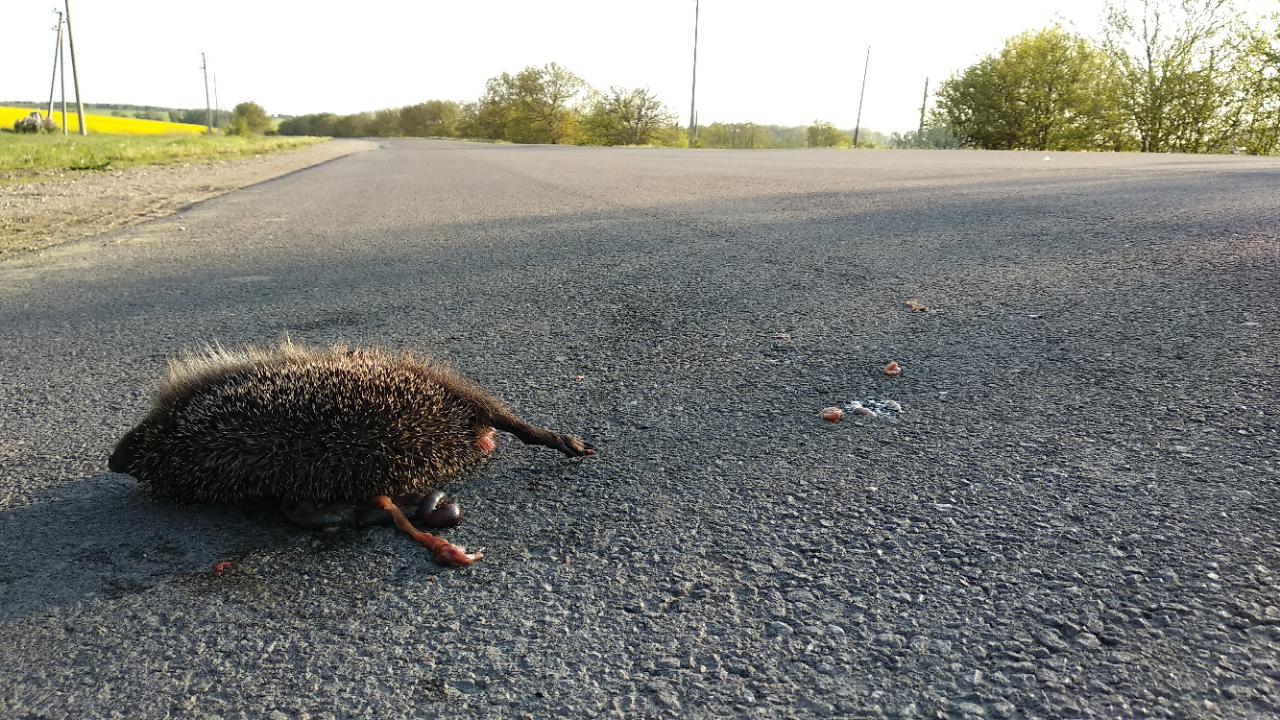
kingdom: Animalia
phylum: Chordata
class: Mammalia
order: Erinaceomorpha
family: Erinaceidae
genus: Erinaceus
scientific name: Erinaceus
